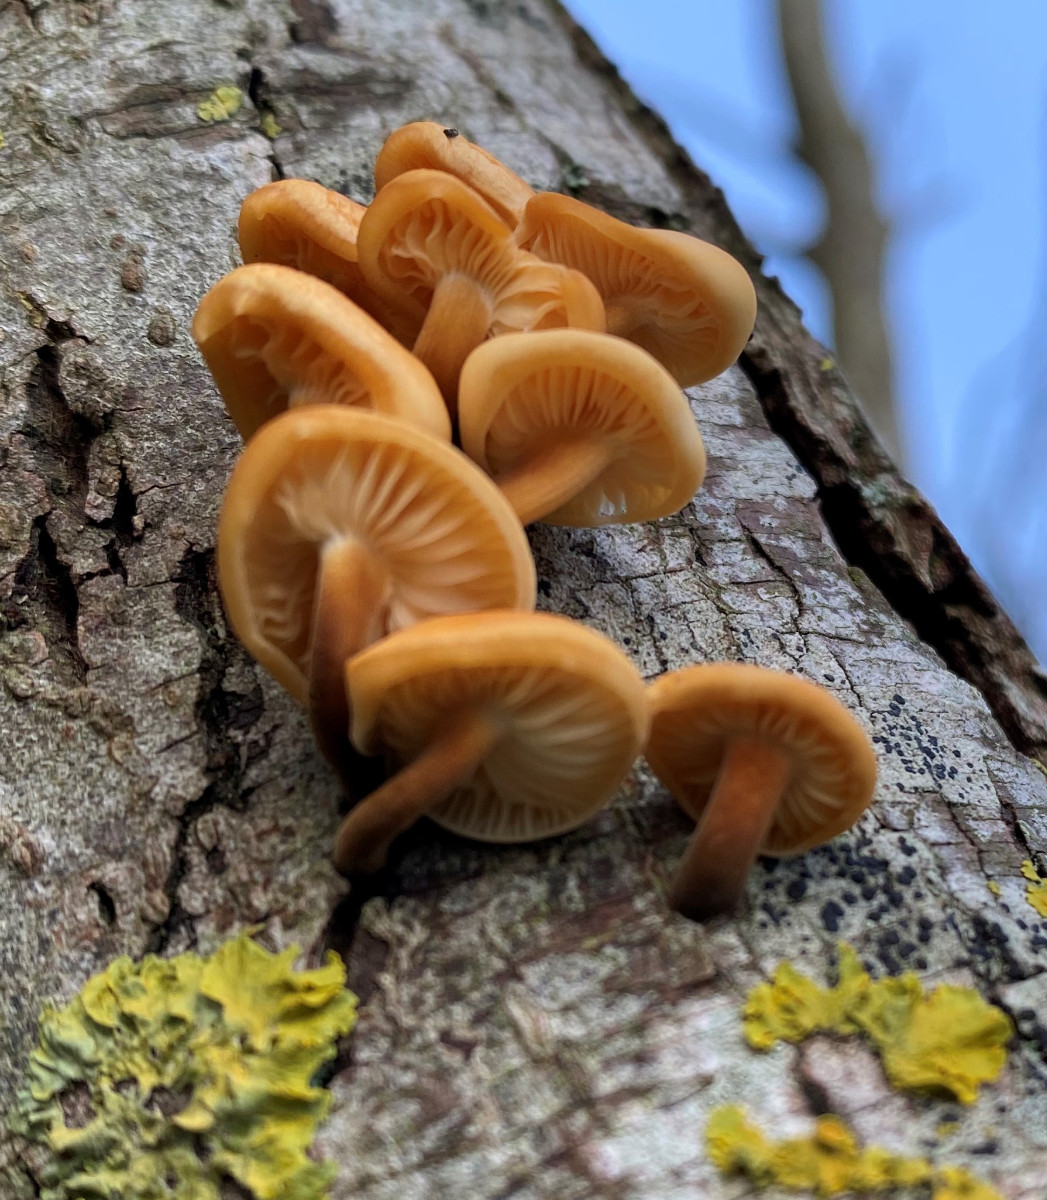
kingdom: Fungi
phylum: Basidiomycota
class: Agaricomycetes
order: Agaricales
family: Physalacriaceae
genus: Flammulina
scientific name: Flammulina
